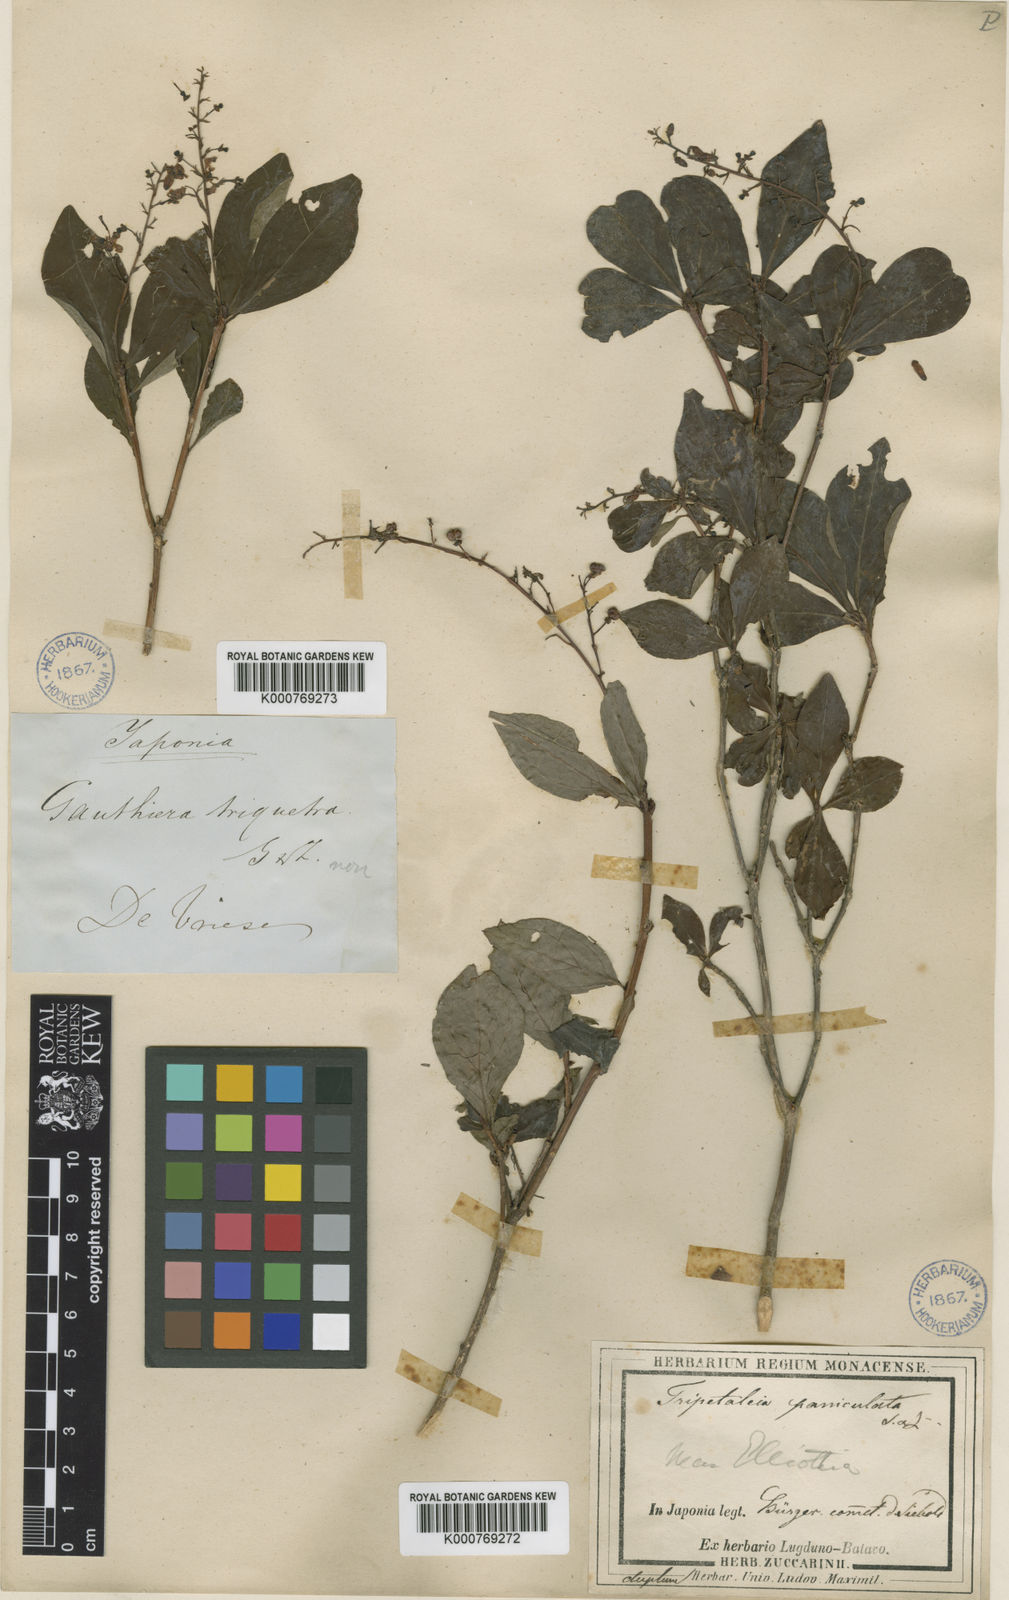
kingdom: Plantae
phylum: Tracheophyta
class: Magnoliopsida
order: Ericales
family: Ericaceae
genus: Elliottia
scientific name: Elliottia paniculata
